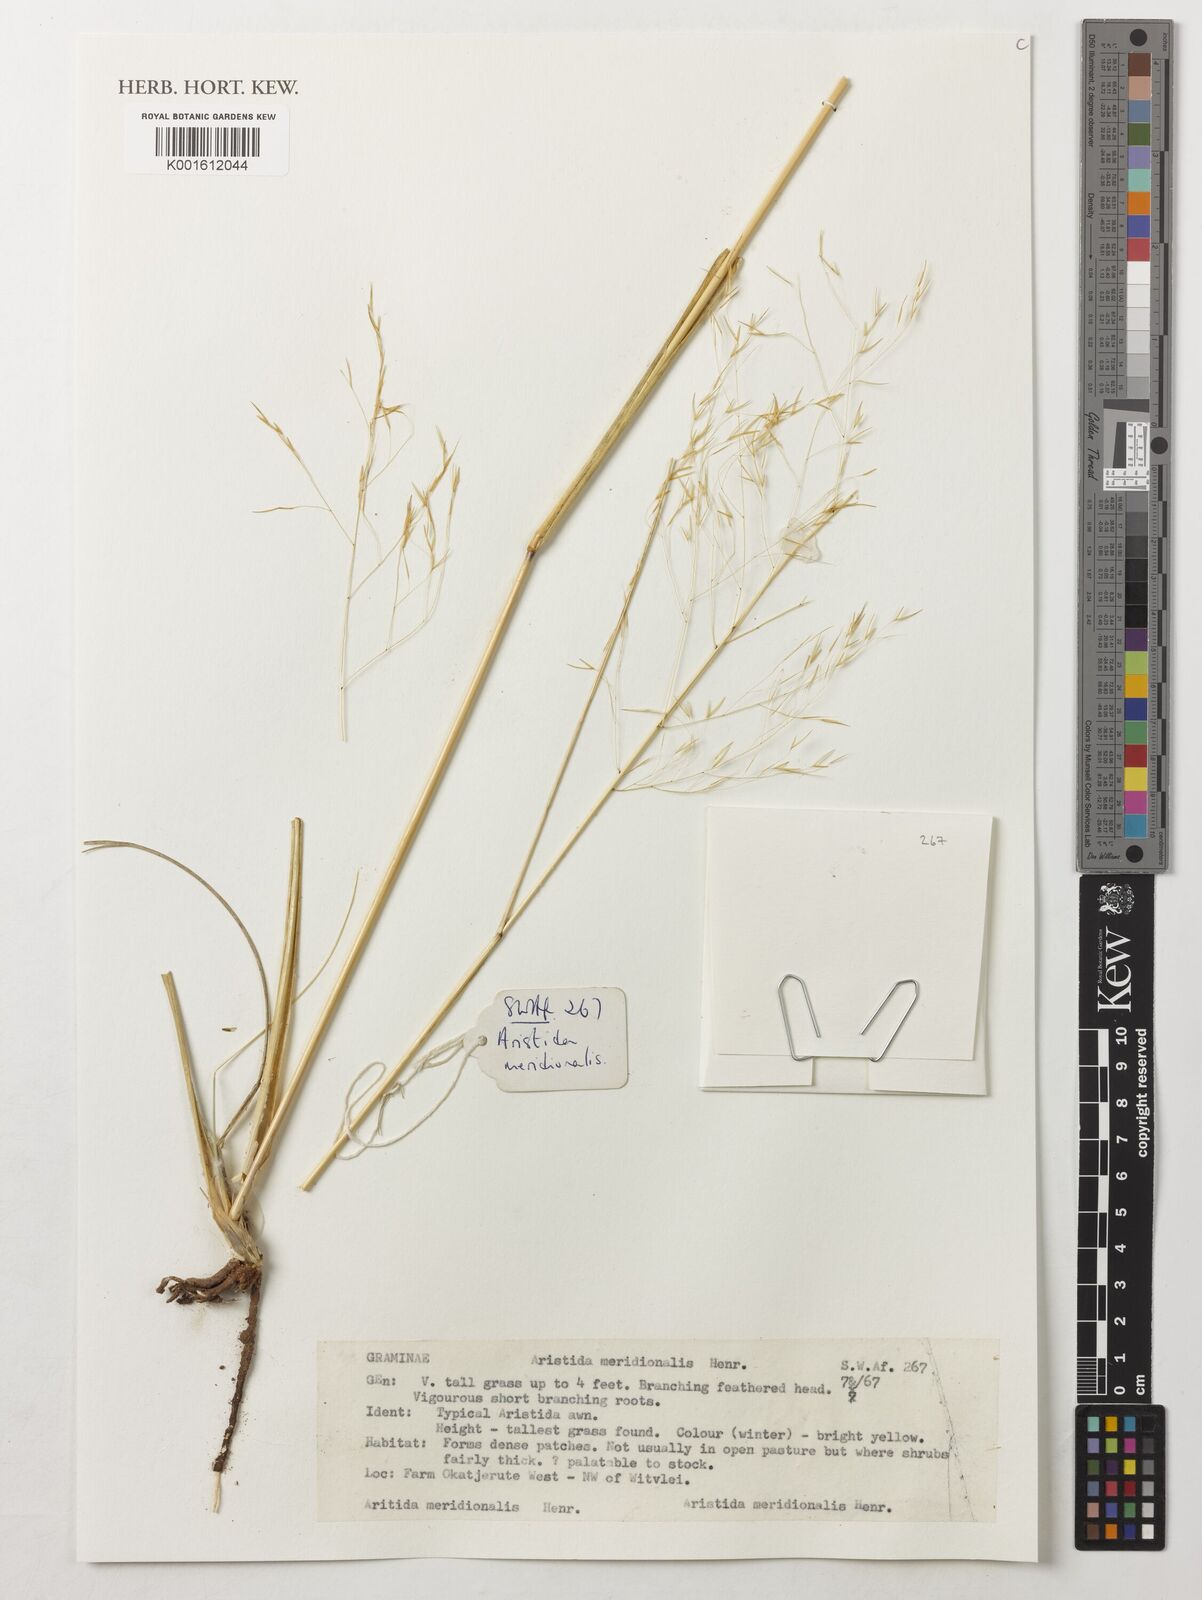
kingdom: Plantae
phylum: Tracheophyta
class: Liliopsida
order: Poales
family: Poaceae
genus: Aristida
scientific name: Aristida meridionalis
